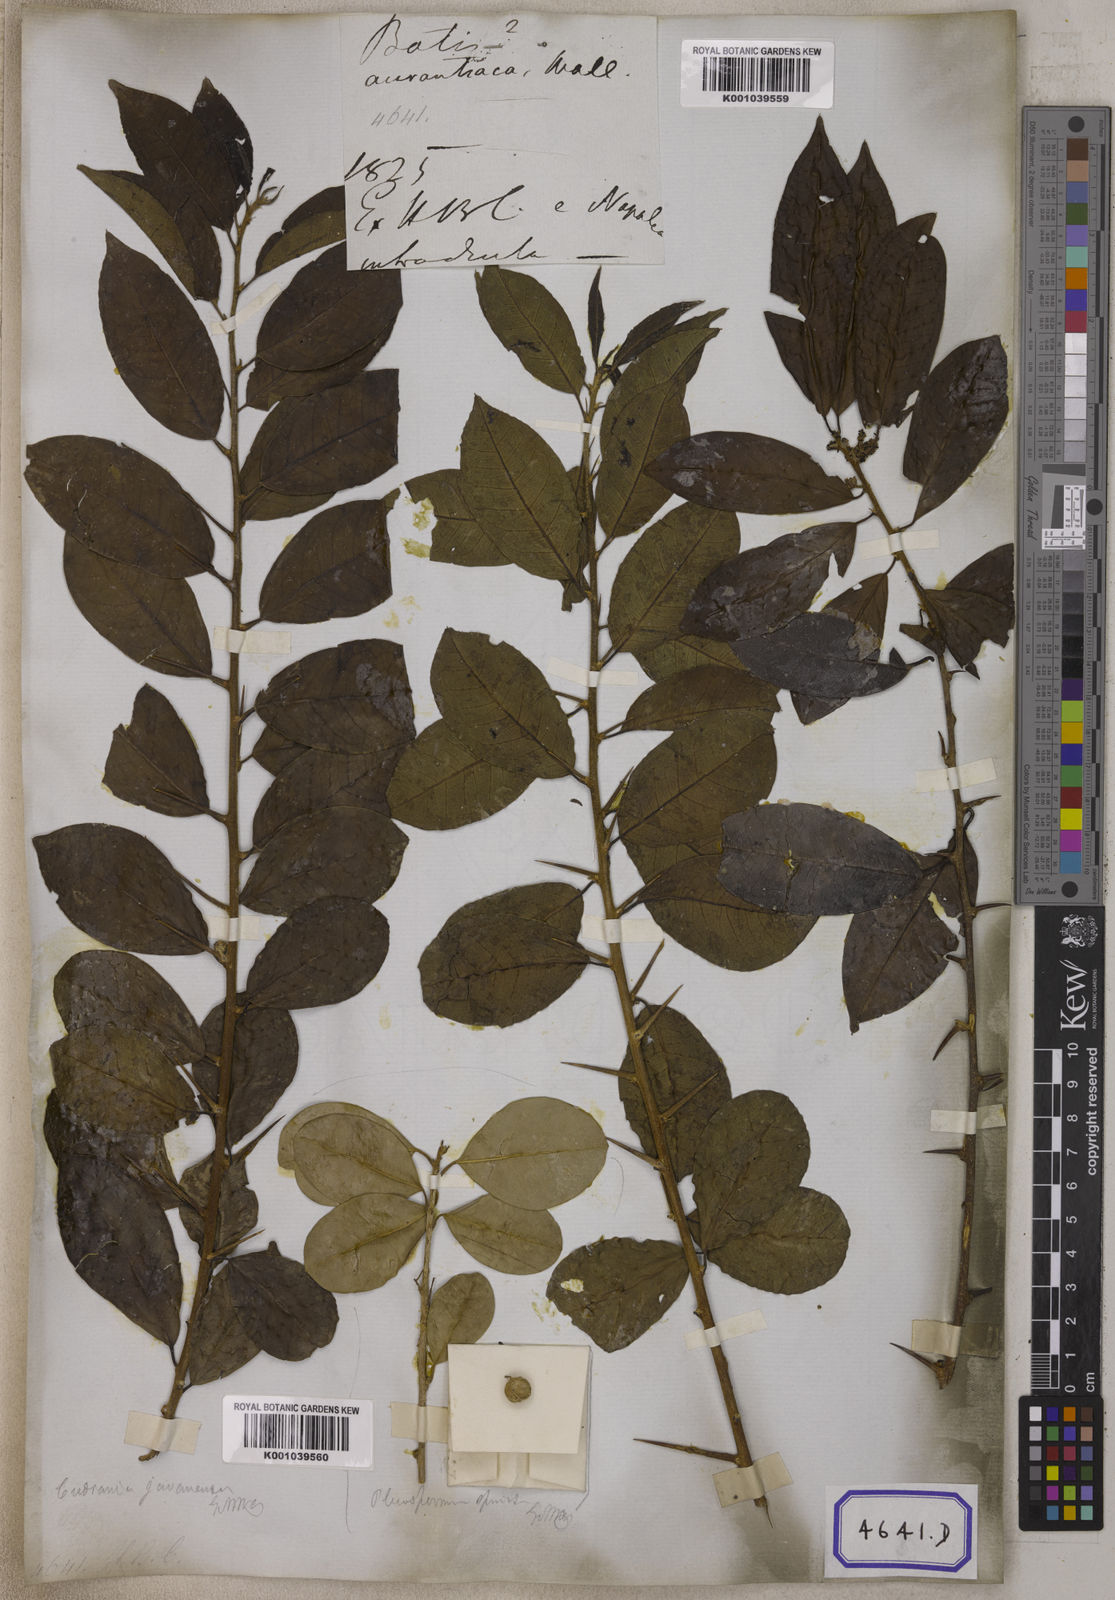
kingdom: Plantae
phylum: Tracheophyta
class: Magnoliopsida
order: Rosales
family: Moraceae
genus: Taxotrophis
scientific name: Taxotrophis taxoides
